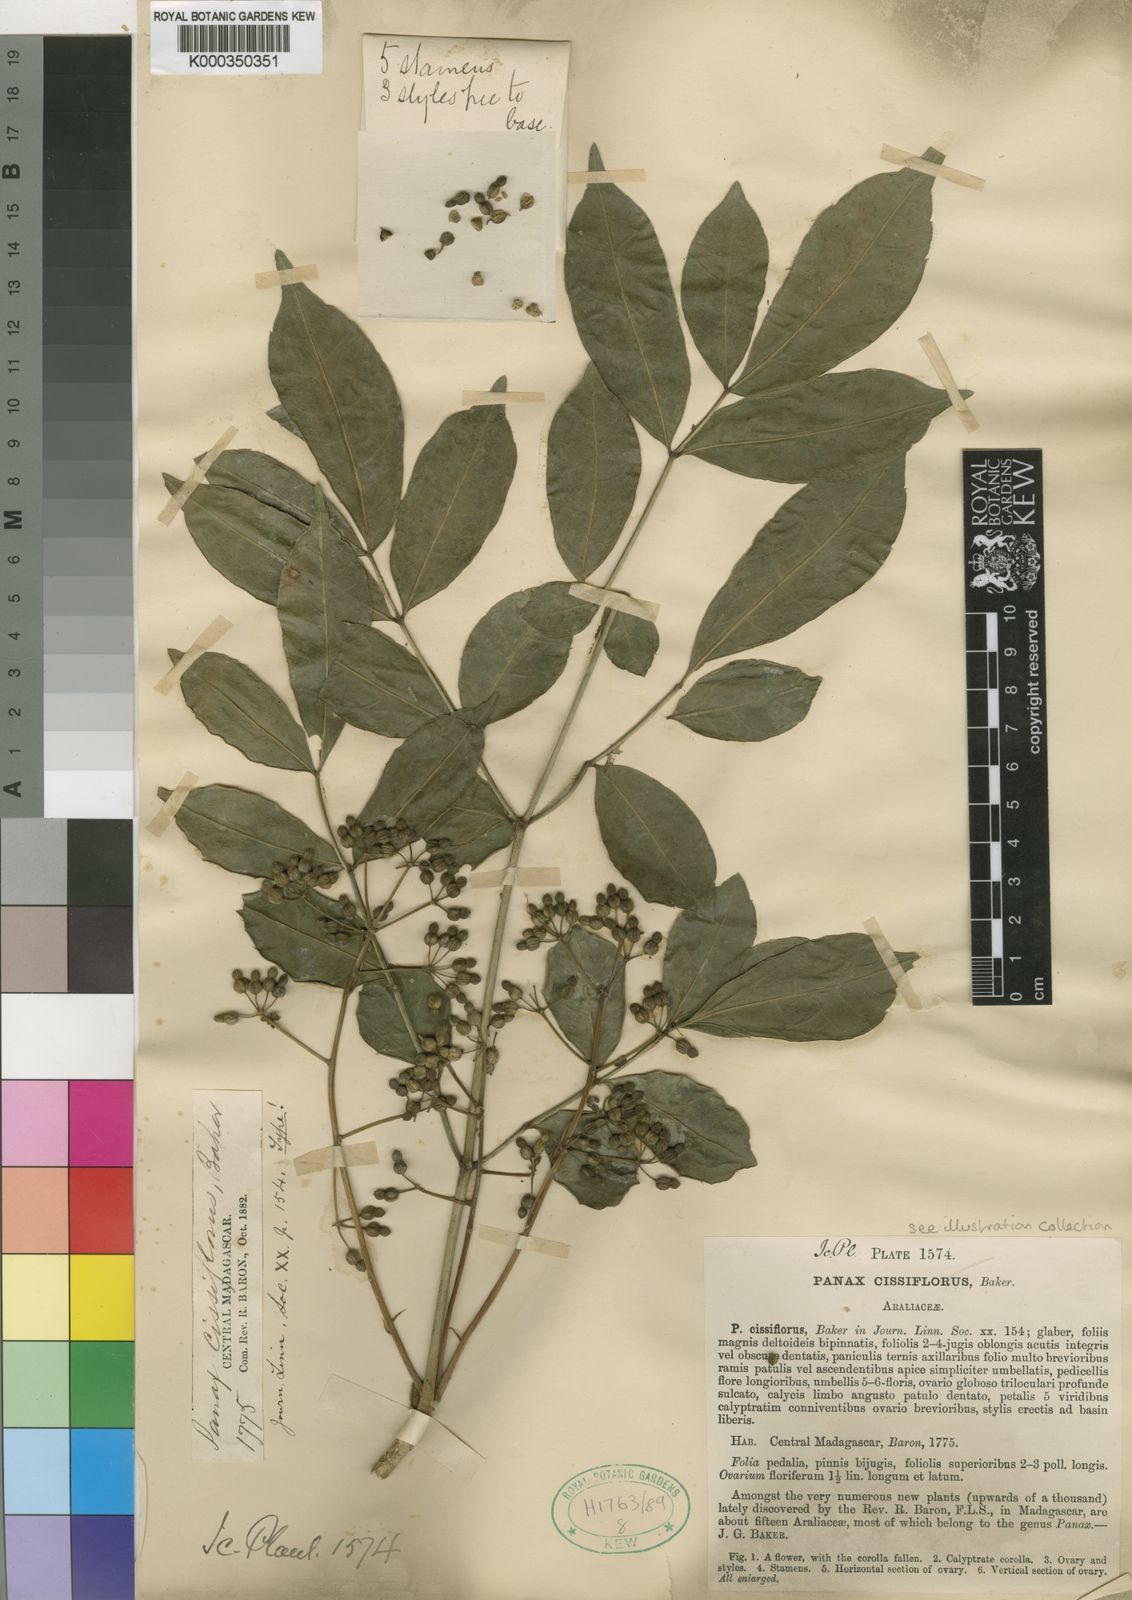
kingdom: Plantae
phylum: Tracheophyta
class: Magnoliopsida
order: Apiales
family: Araliaceae
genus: Polyscias
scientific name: Polyscias cissiflora
